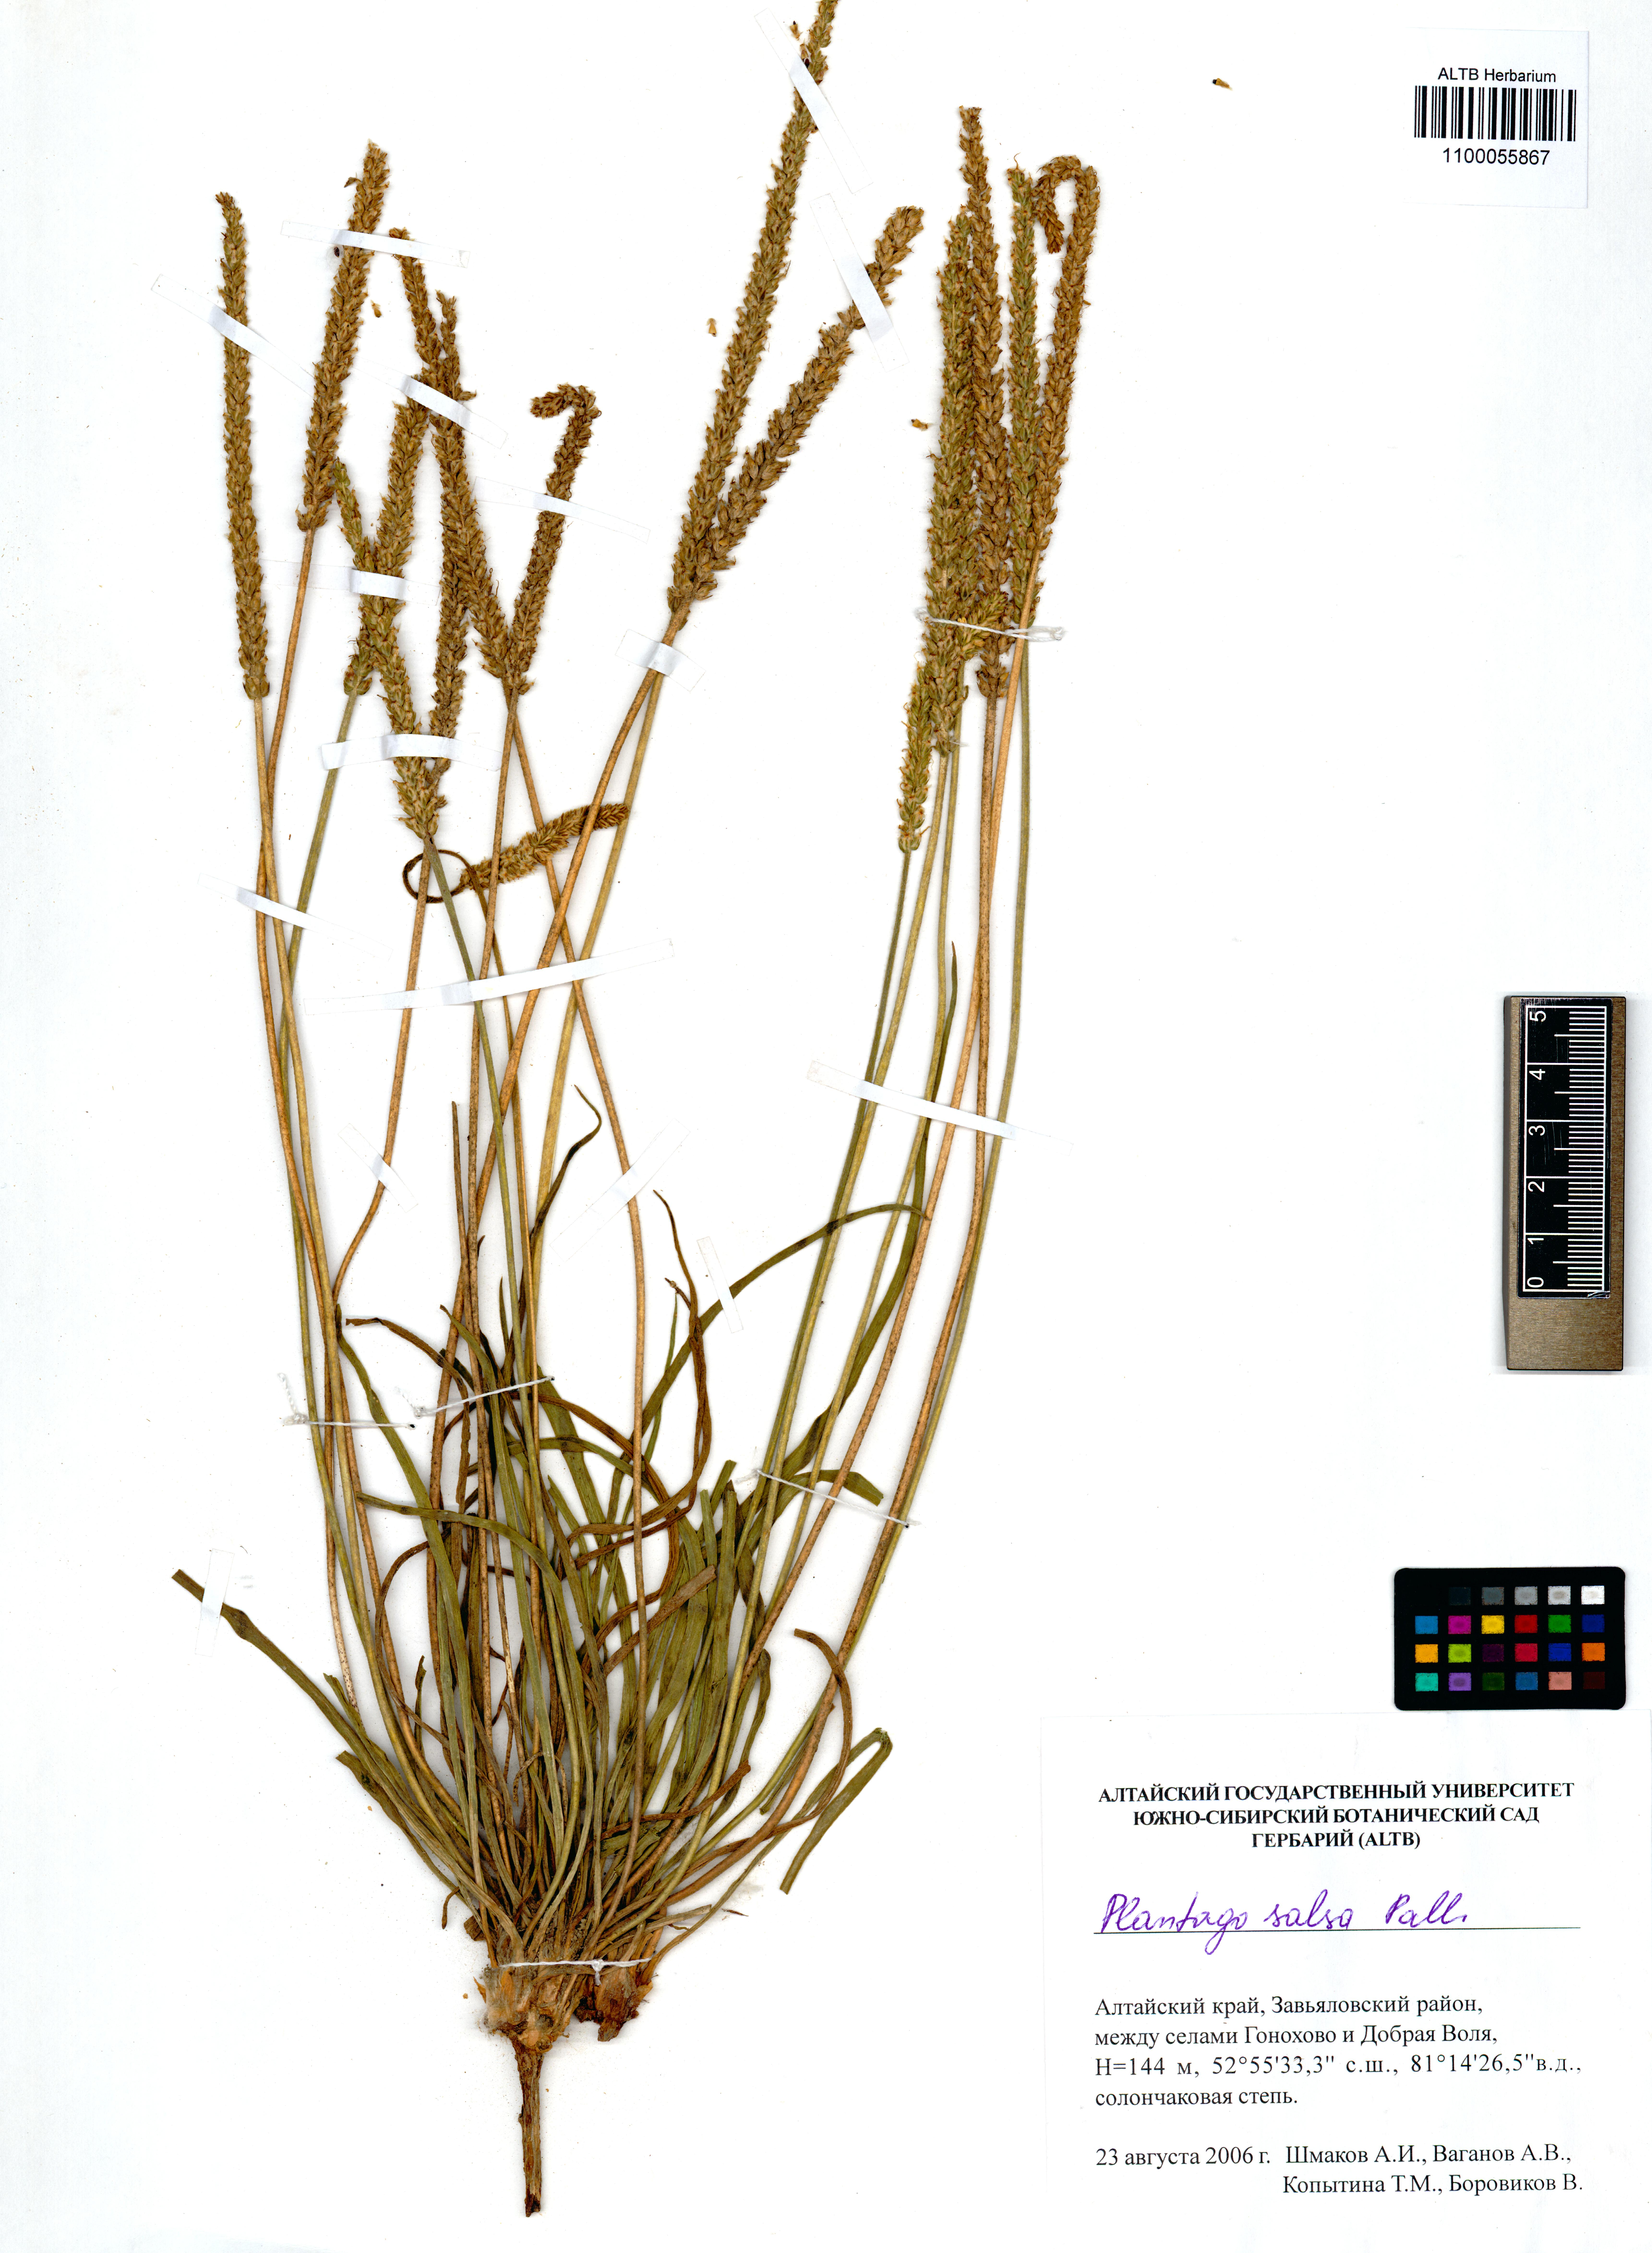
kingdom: Plantae
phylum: Tracheophyta
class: Magnoliopsida
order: Lamiales
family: Plantaginaceae
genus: Plantago
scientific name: Plantago salsa
